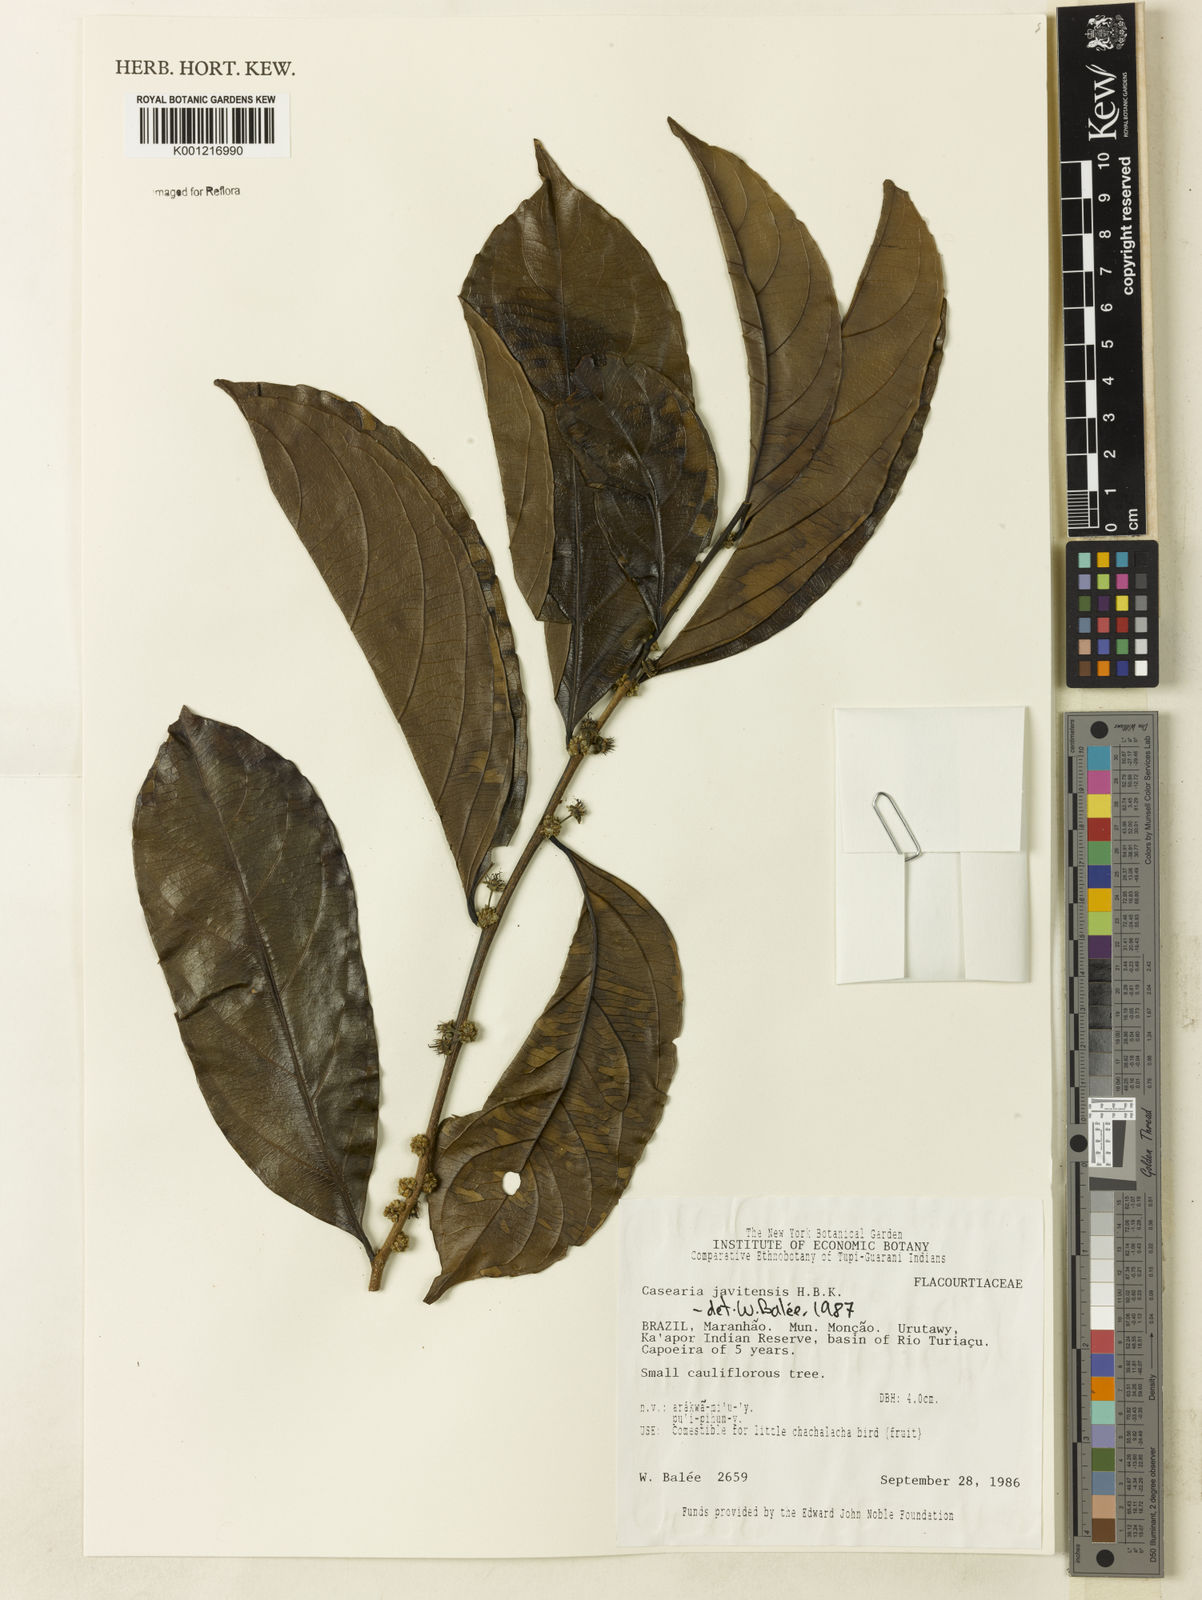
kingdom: Plantae
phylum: Tracheophyta
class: Magnoliopsida
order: Malpighiales
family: Salicaceae
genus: Piparea
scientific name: Piparea multiflora
